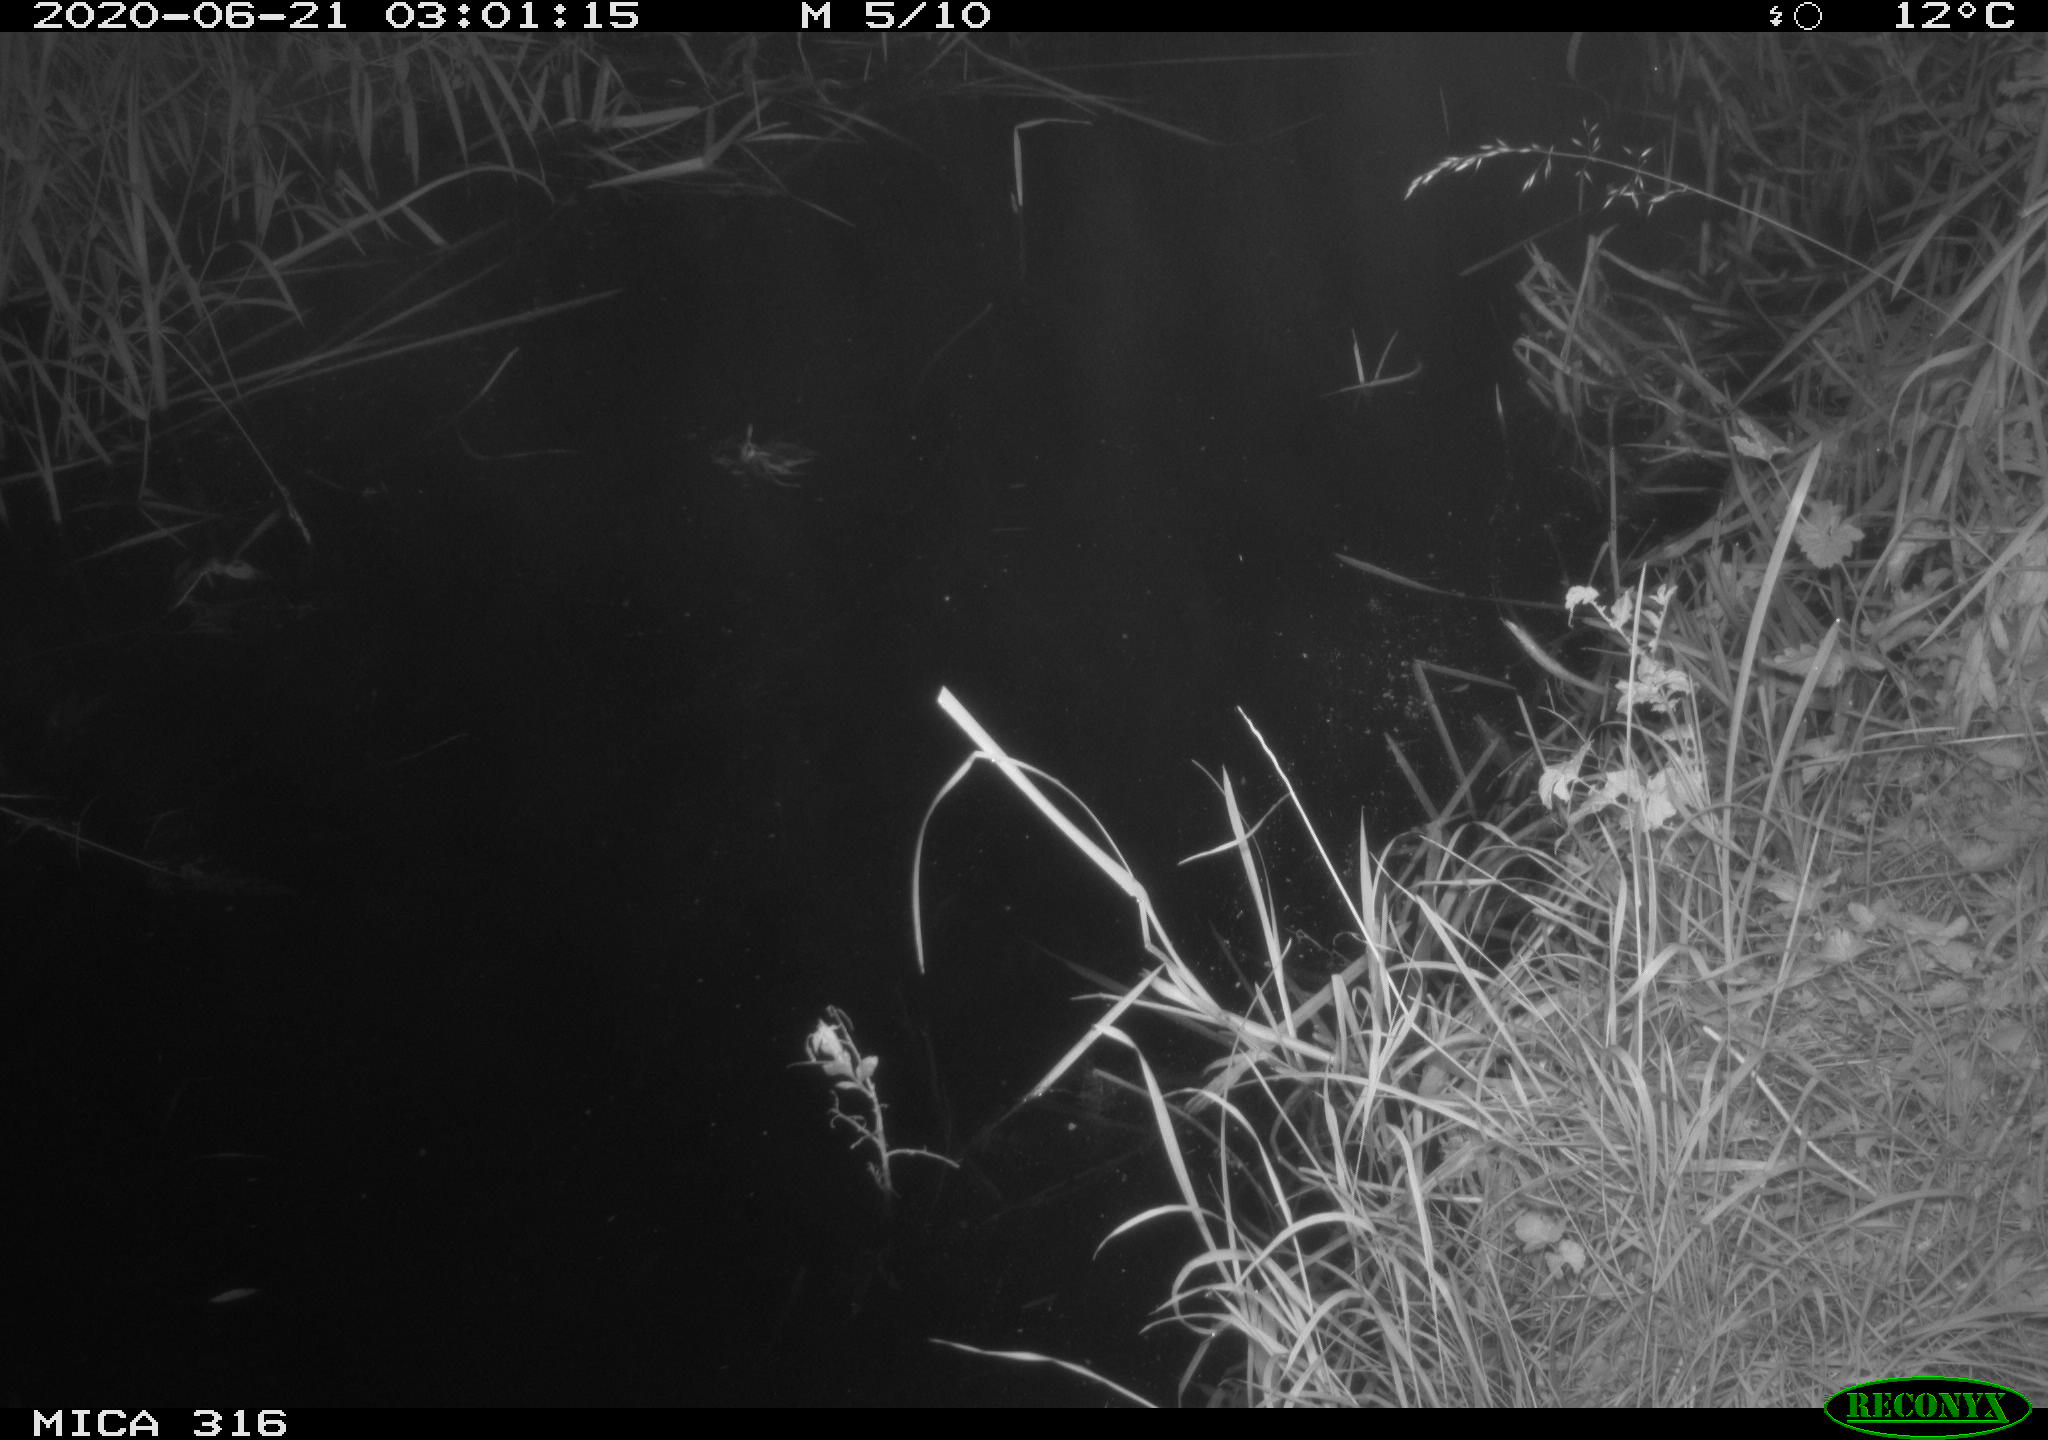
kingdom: Animalia
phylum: Chordata
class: Aves
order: Anseriformes
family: Anatidae
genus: Anas
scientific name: Anas platyrhynchos
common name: Mallard
